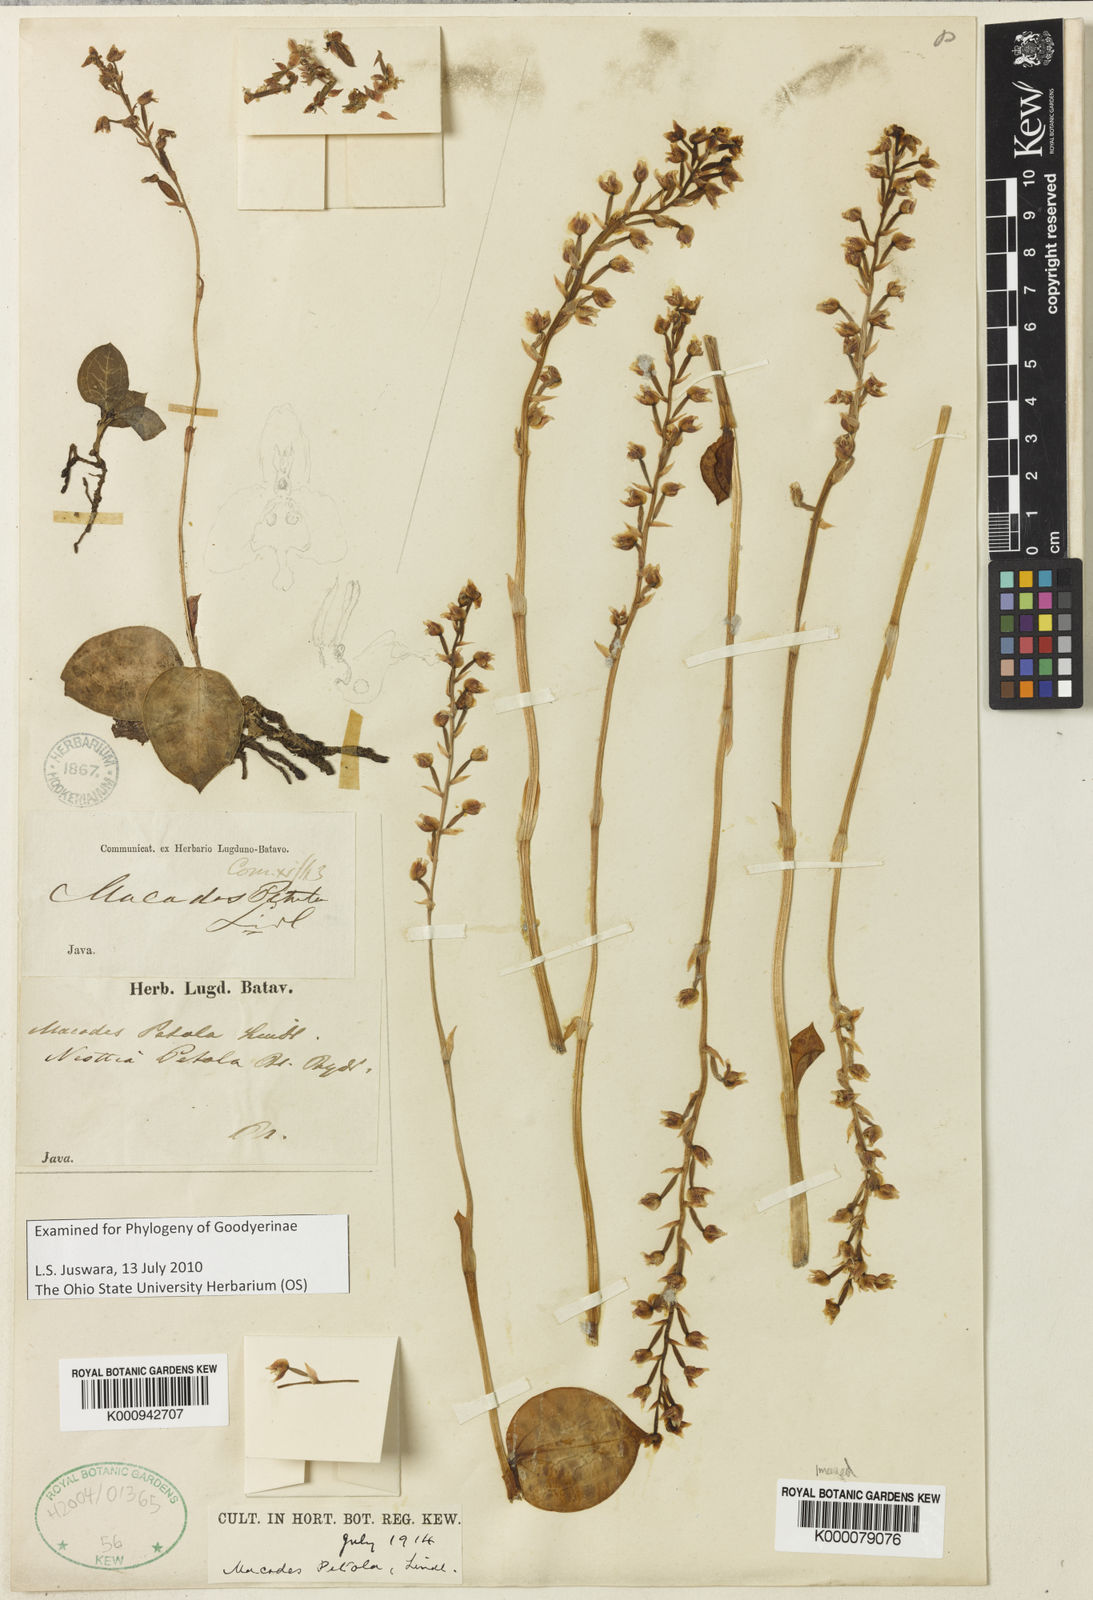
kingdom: Plantae
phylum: Tracheophyta
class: Liliopsida
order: Asparagales
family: Orchidaceae
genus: Macodes
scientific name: Macodes petola
